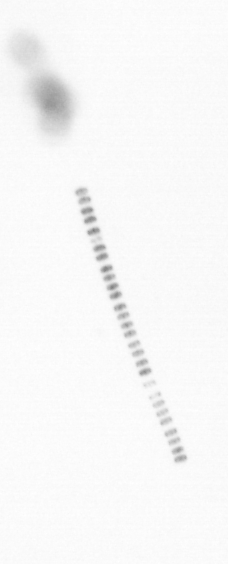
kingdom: Chromista
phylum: Ochrophyta
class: Bacillariophyceae
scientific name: Bacillariophyceae
